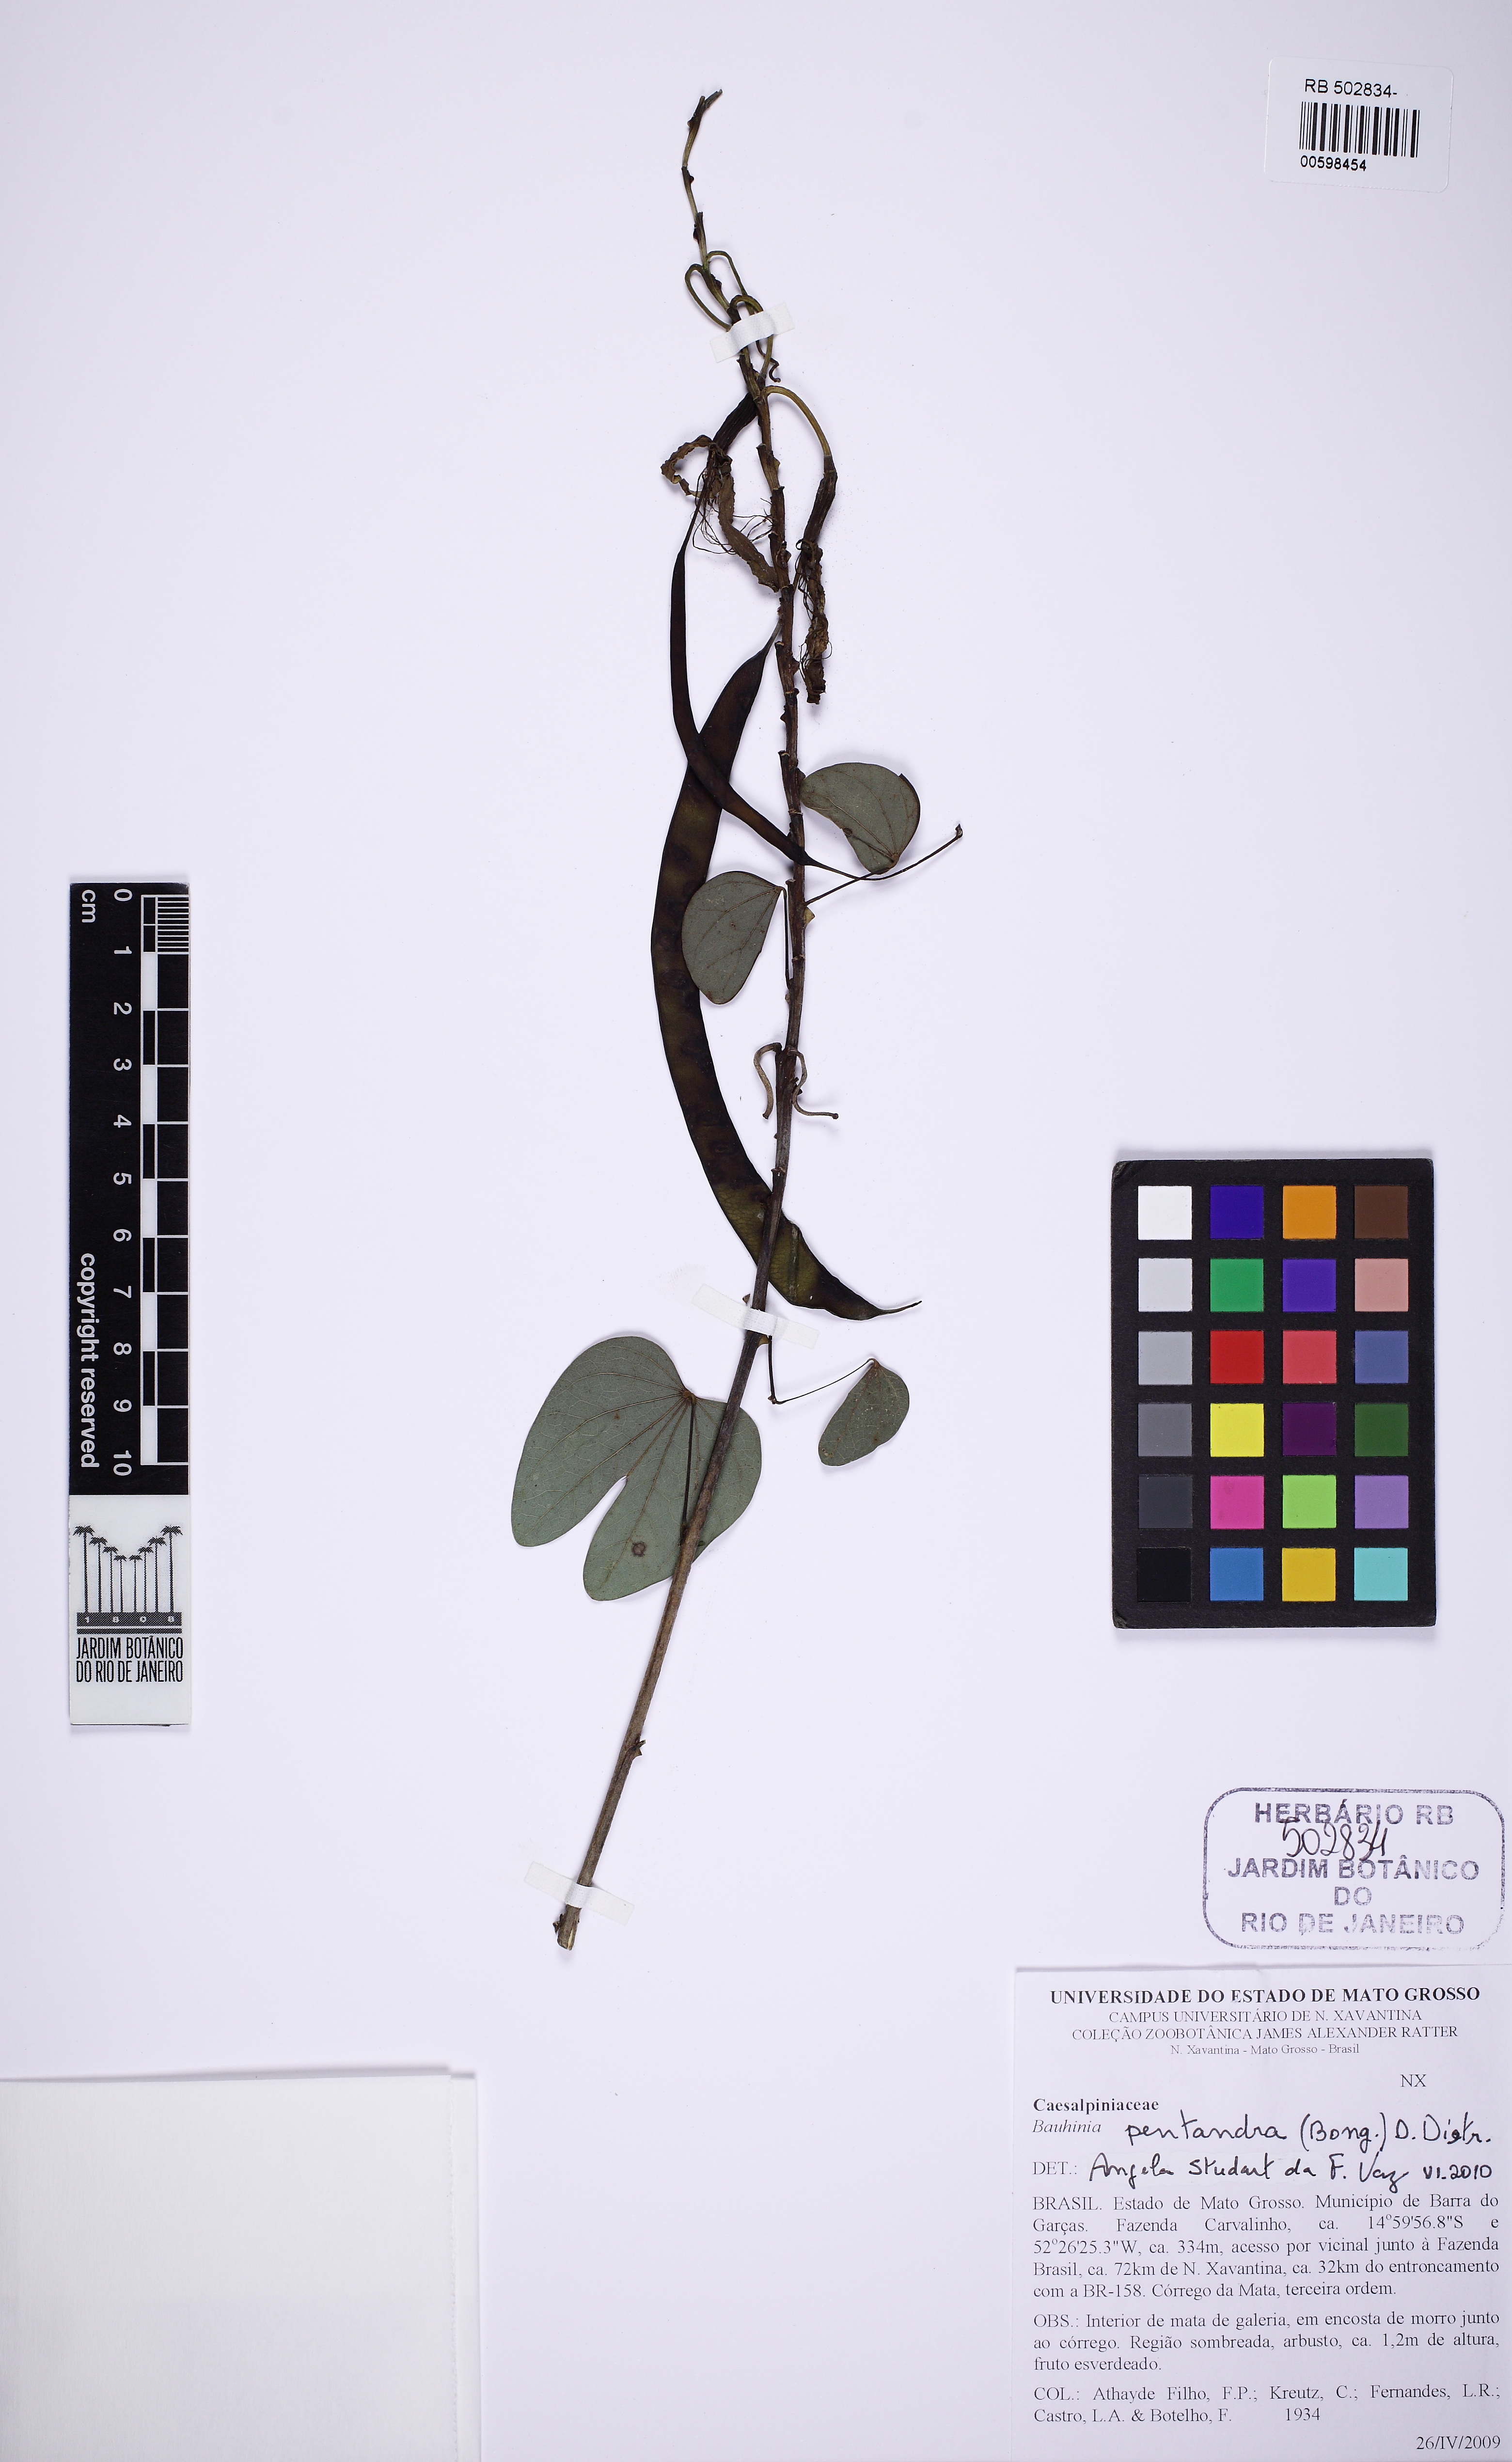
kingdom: Plantae
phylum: Tracheophyta
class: Magnoliopsida
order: Fabales
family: Fabaceae
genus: Bauhinia
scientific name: Bauhinia pentandra
